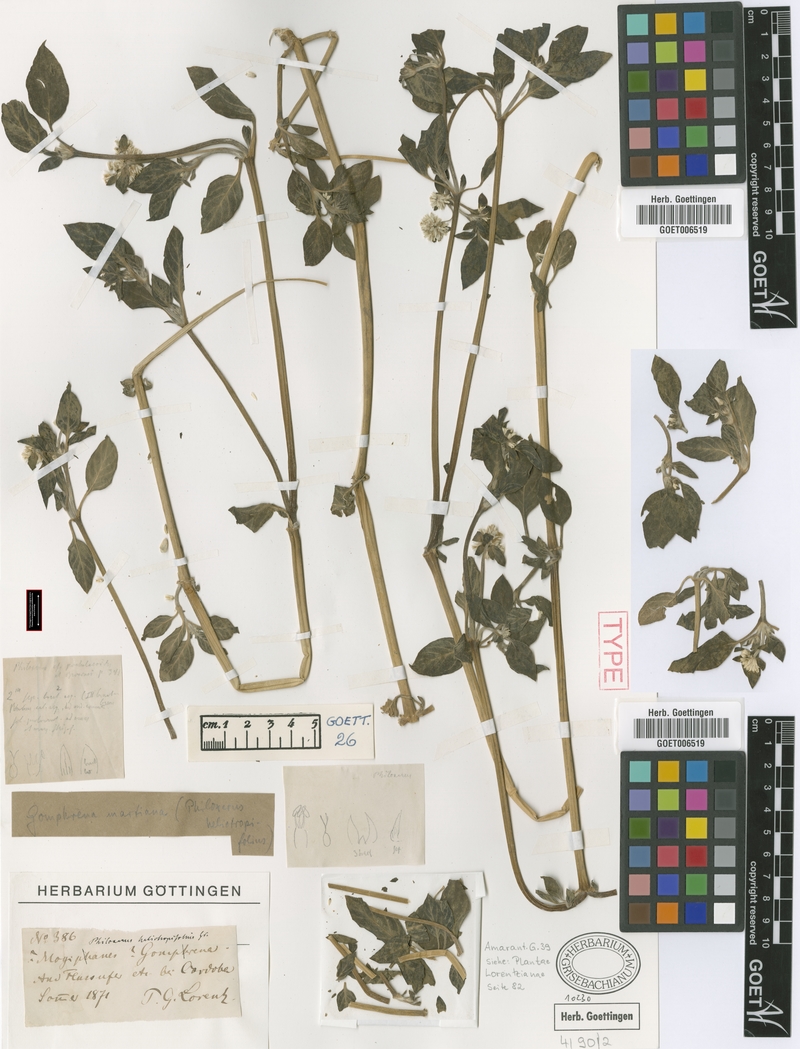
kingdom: Plantae
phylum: Tracheophyta
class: Magnoliopsida
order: Caryophyllales
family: Amaranthaceae
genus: Gomphrena
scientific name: Gomphrena martiana
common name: Globe amaranth
